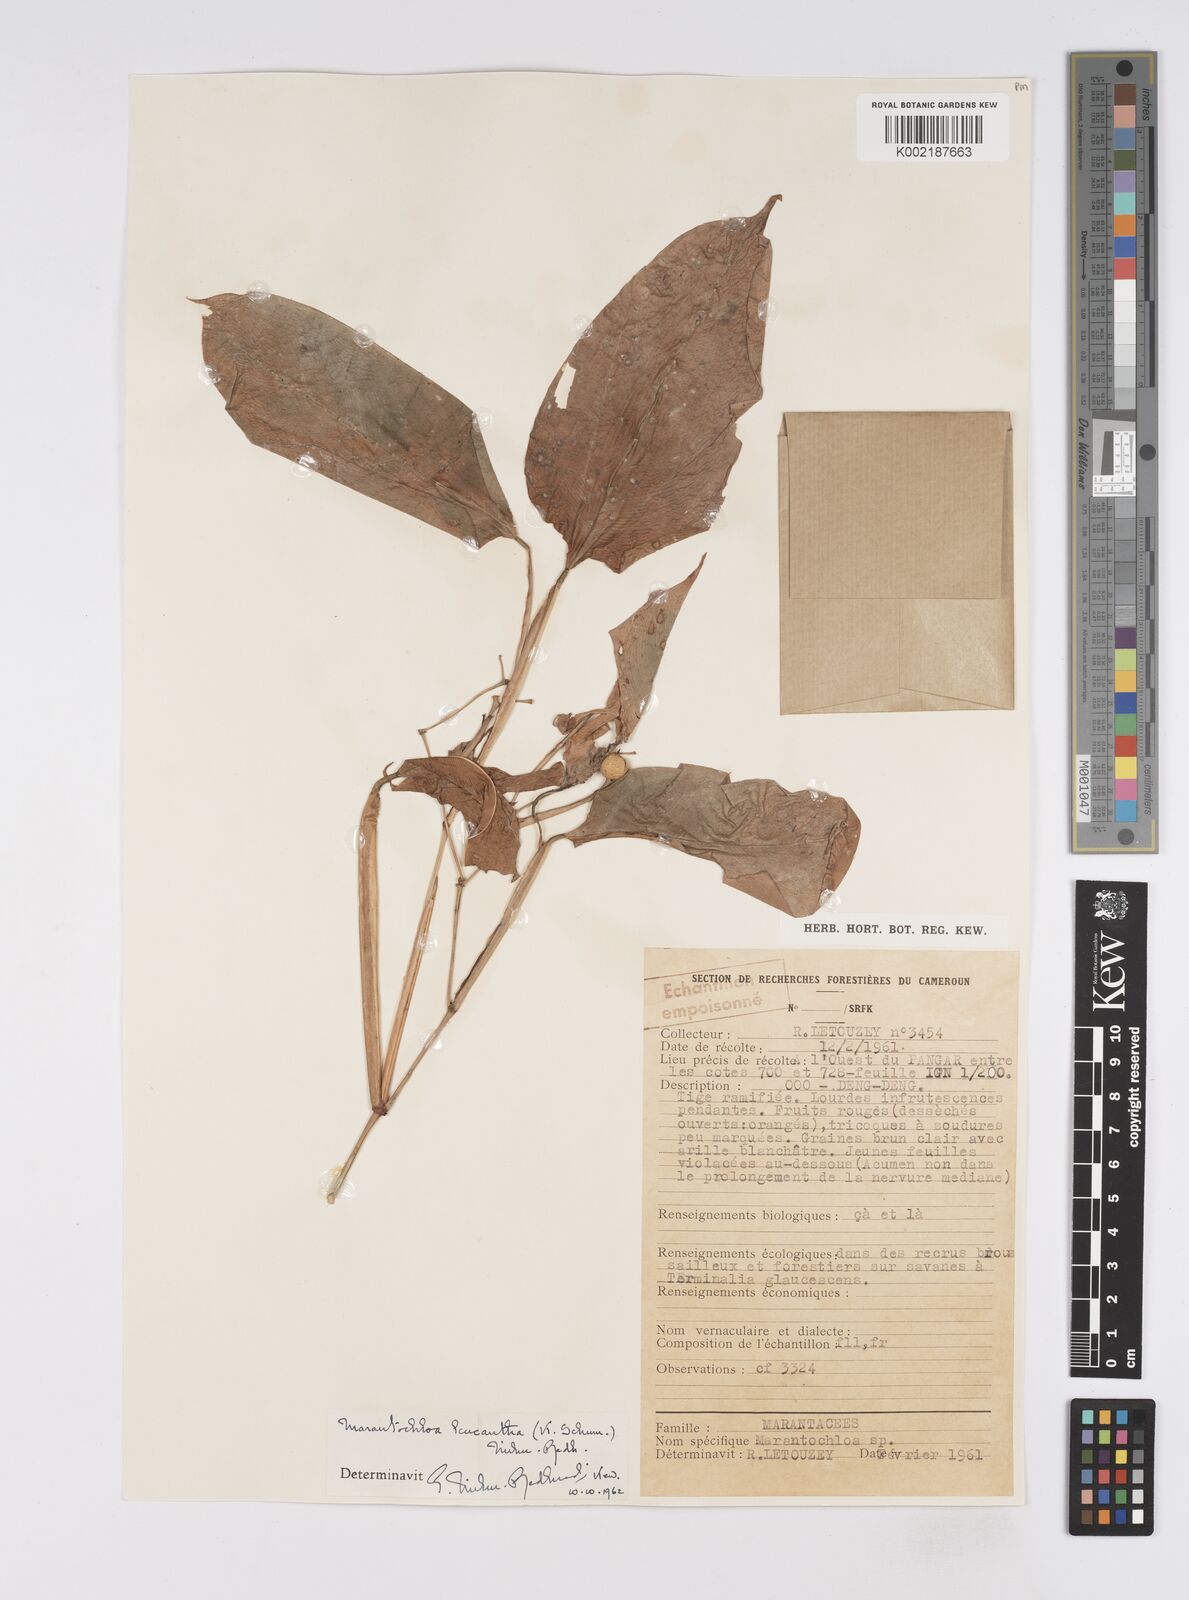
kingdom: Plantae
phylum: Tracheophyta
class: Liliopsida
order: Zingiberales
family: Marantaceae
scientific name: Marantaceae
